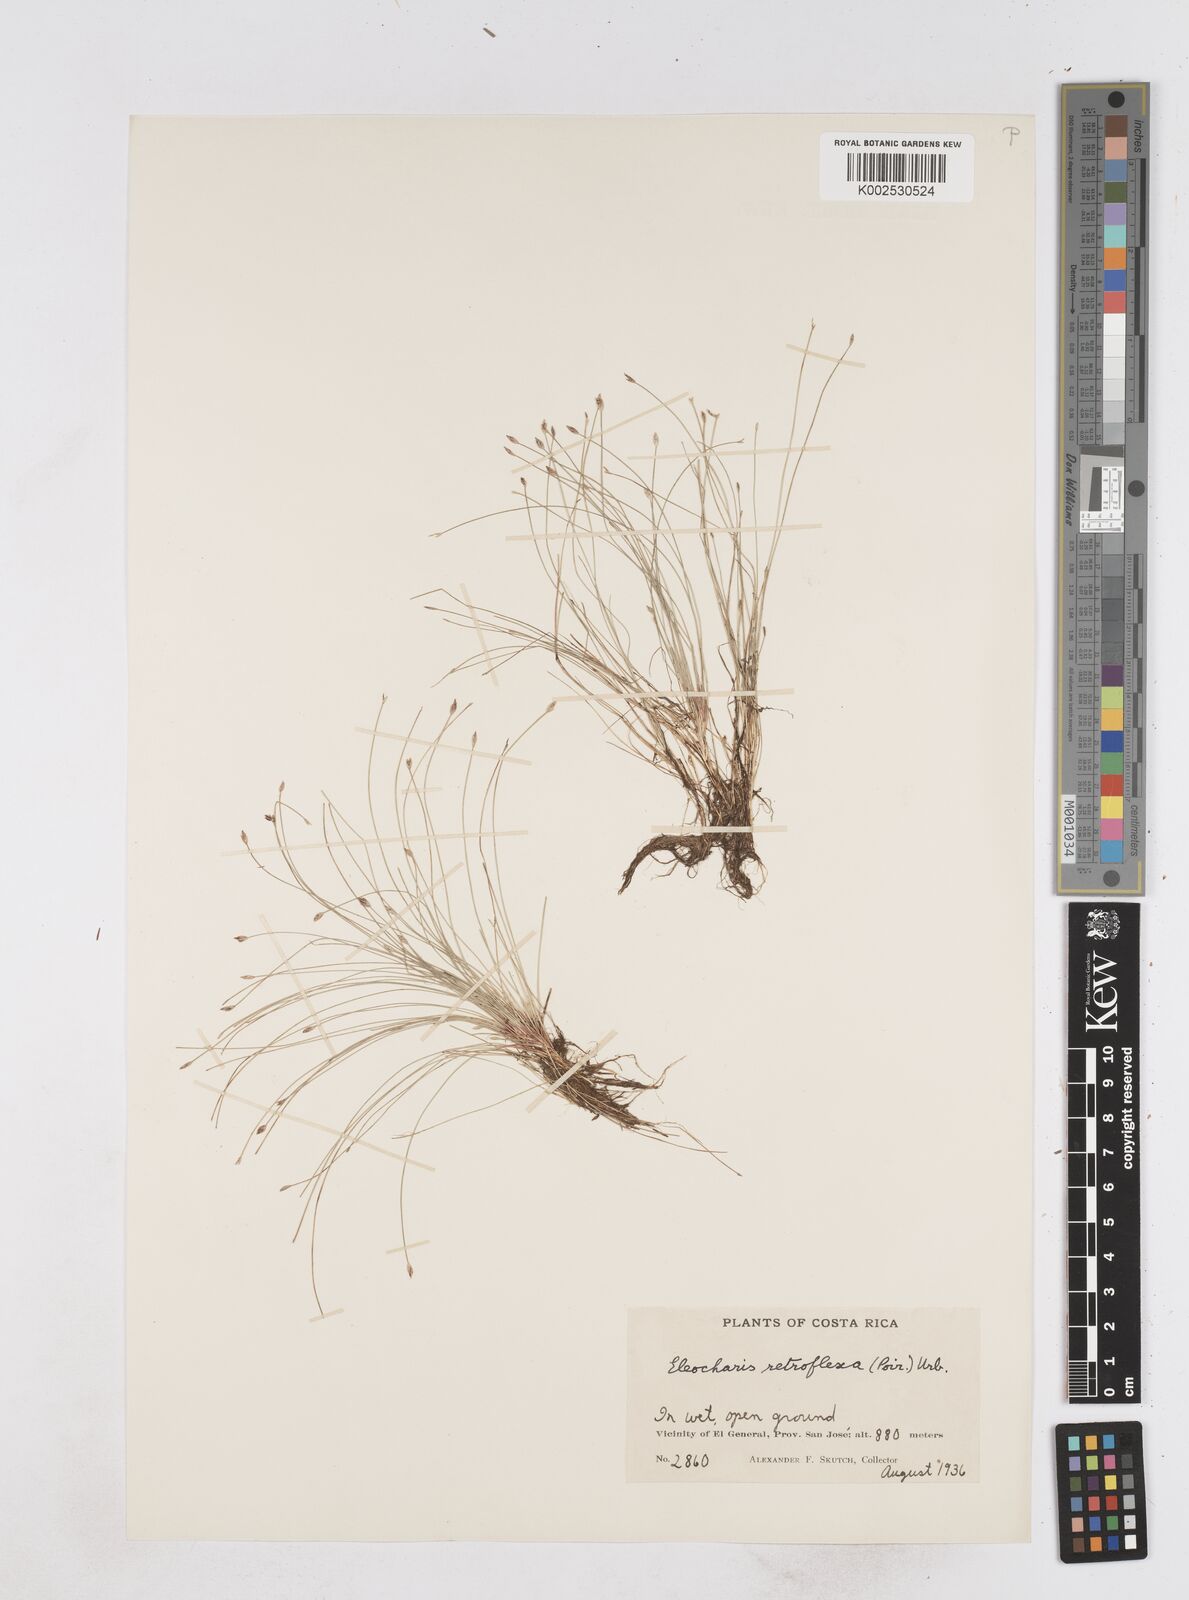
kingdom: Plantae
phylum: Tracheophyta
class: Liliopsida
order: Poales
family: Cyperaceae
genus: Eleocharis
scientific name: Eleocharis retroflexa
